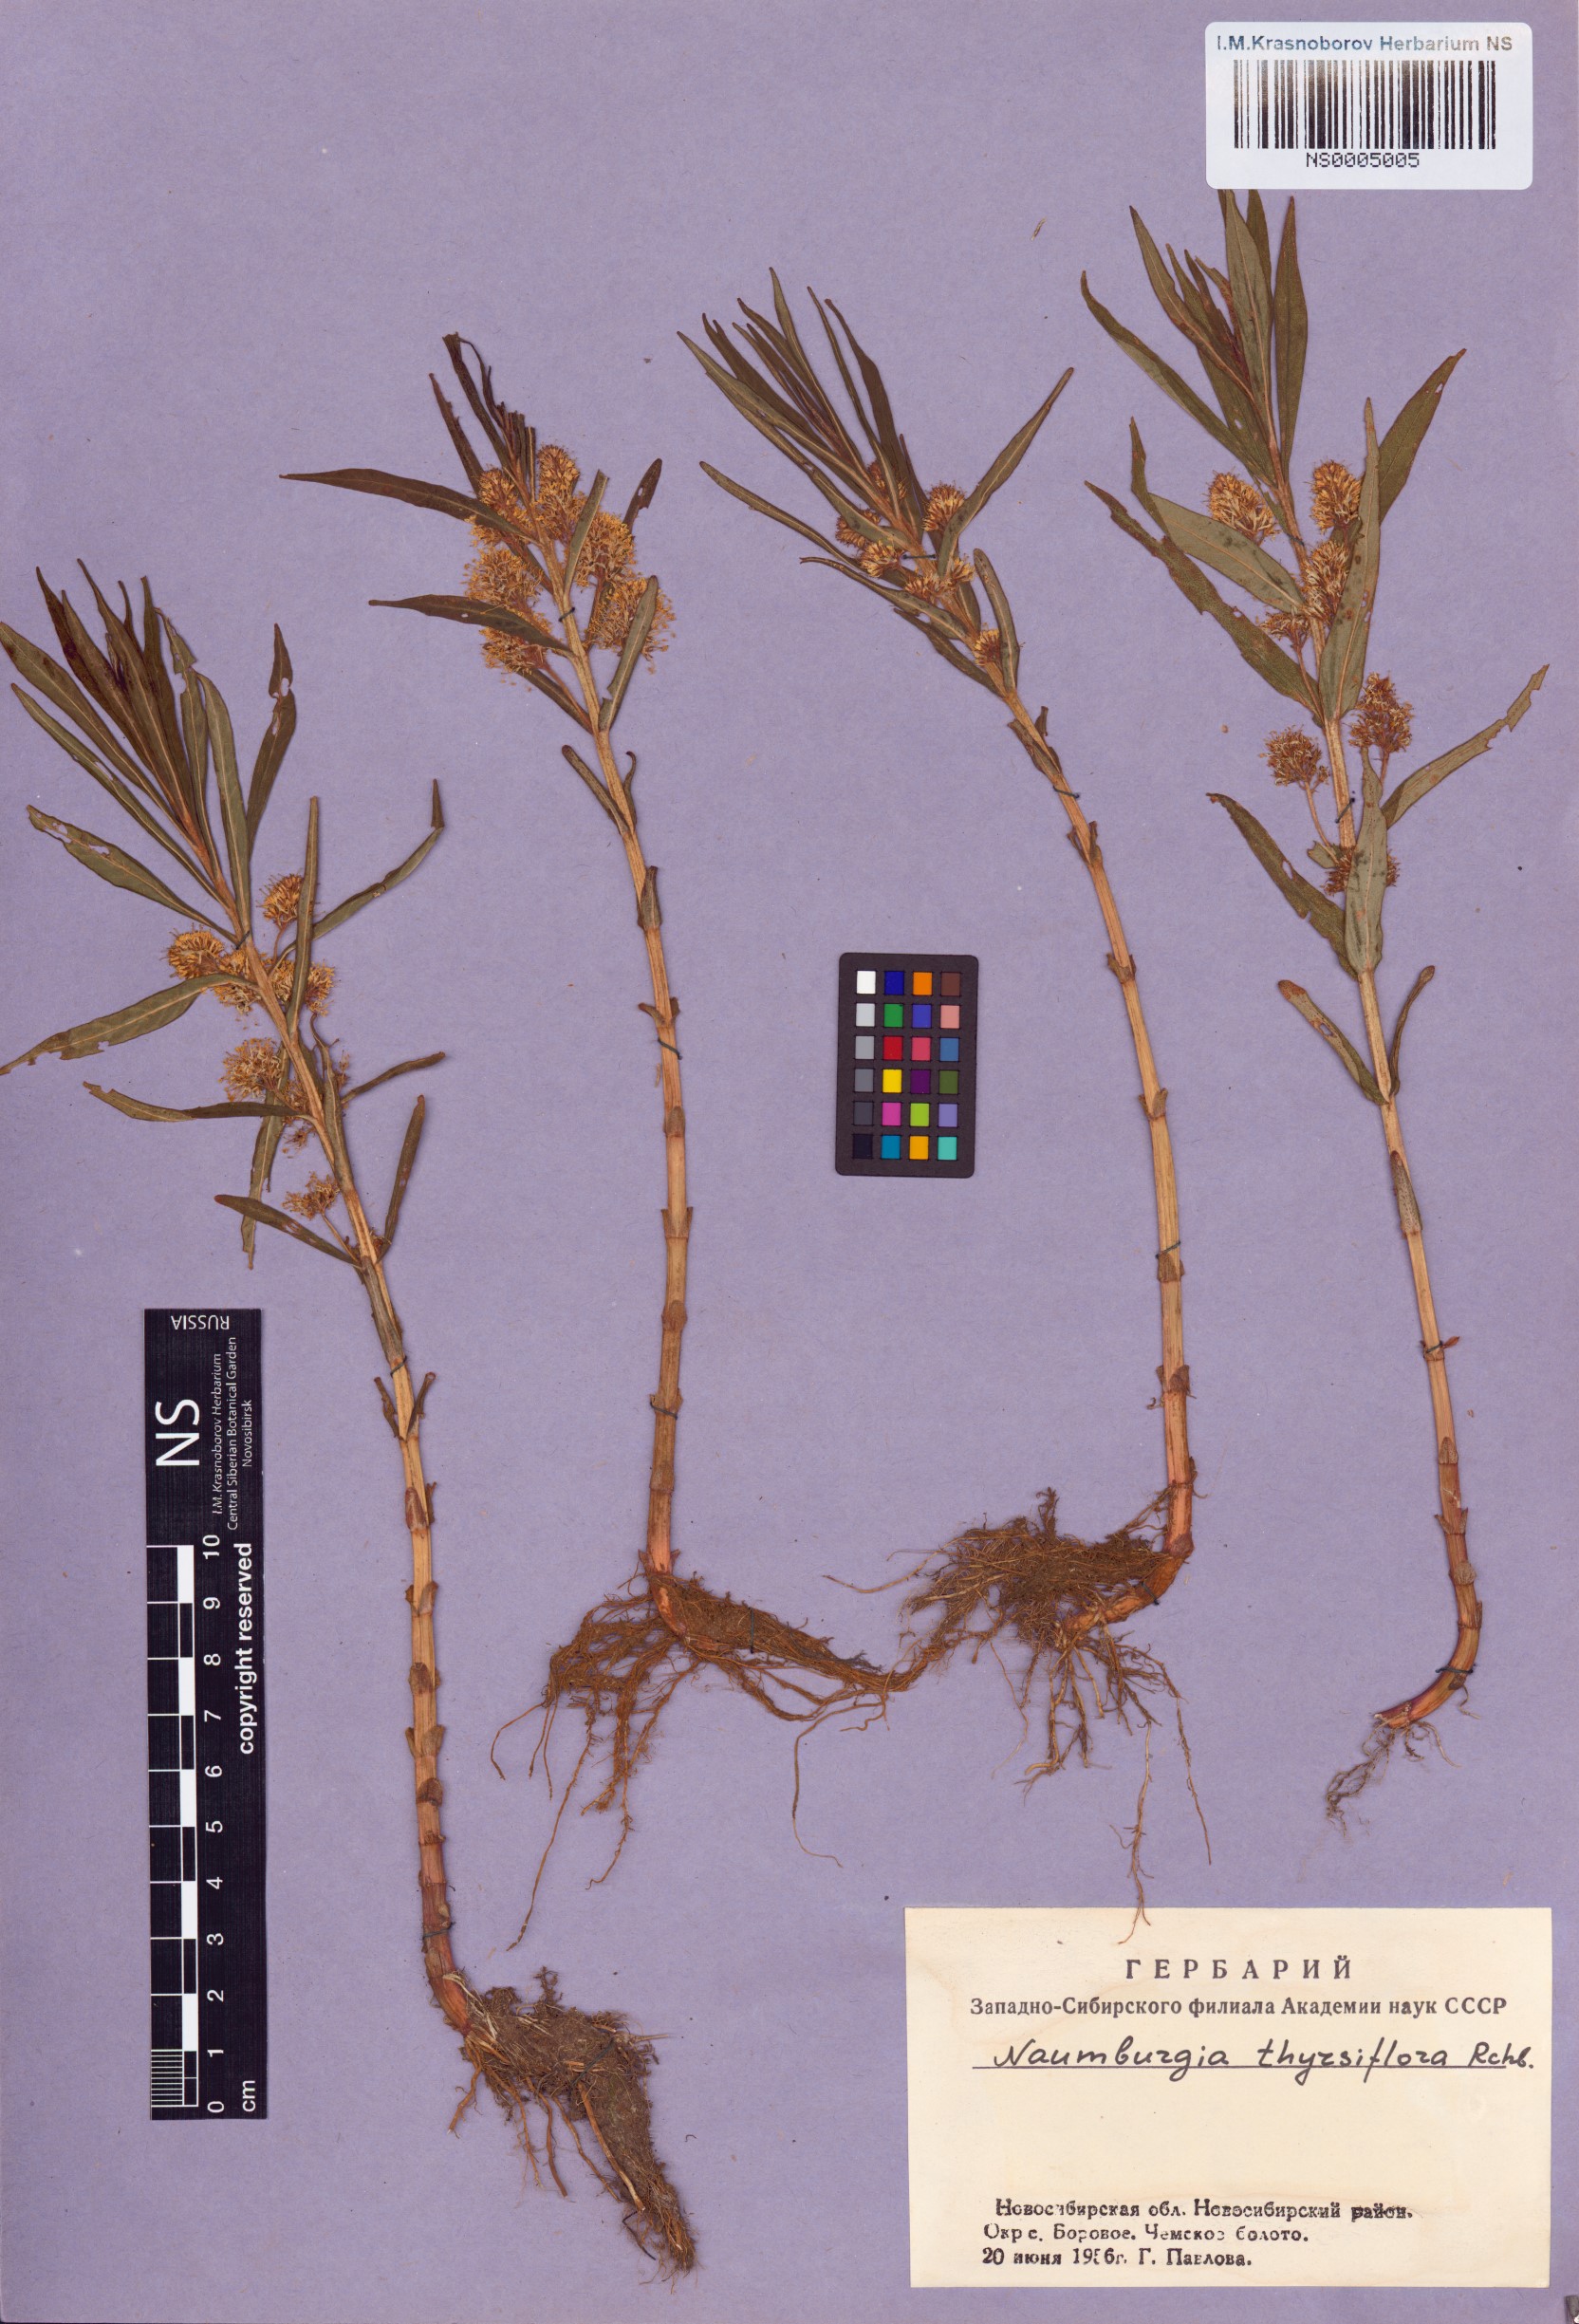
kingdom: Plantae
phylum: Tracheophyta
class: Magnoliopsida
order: Ericales
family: Primulaceae
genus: Lysimachia
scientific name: Lysimachia thyrsiflora
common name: Tufted loosestrife
